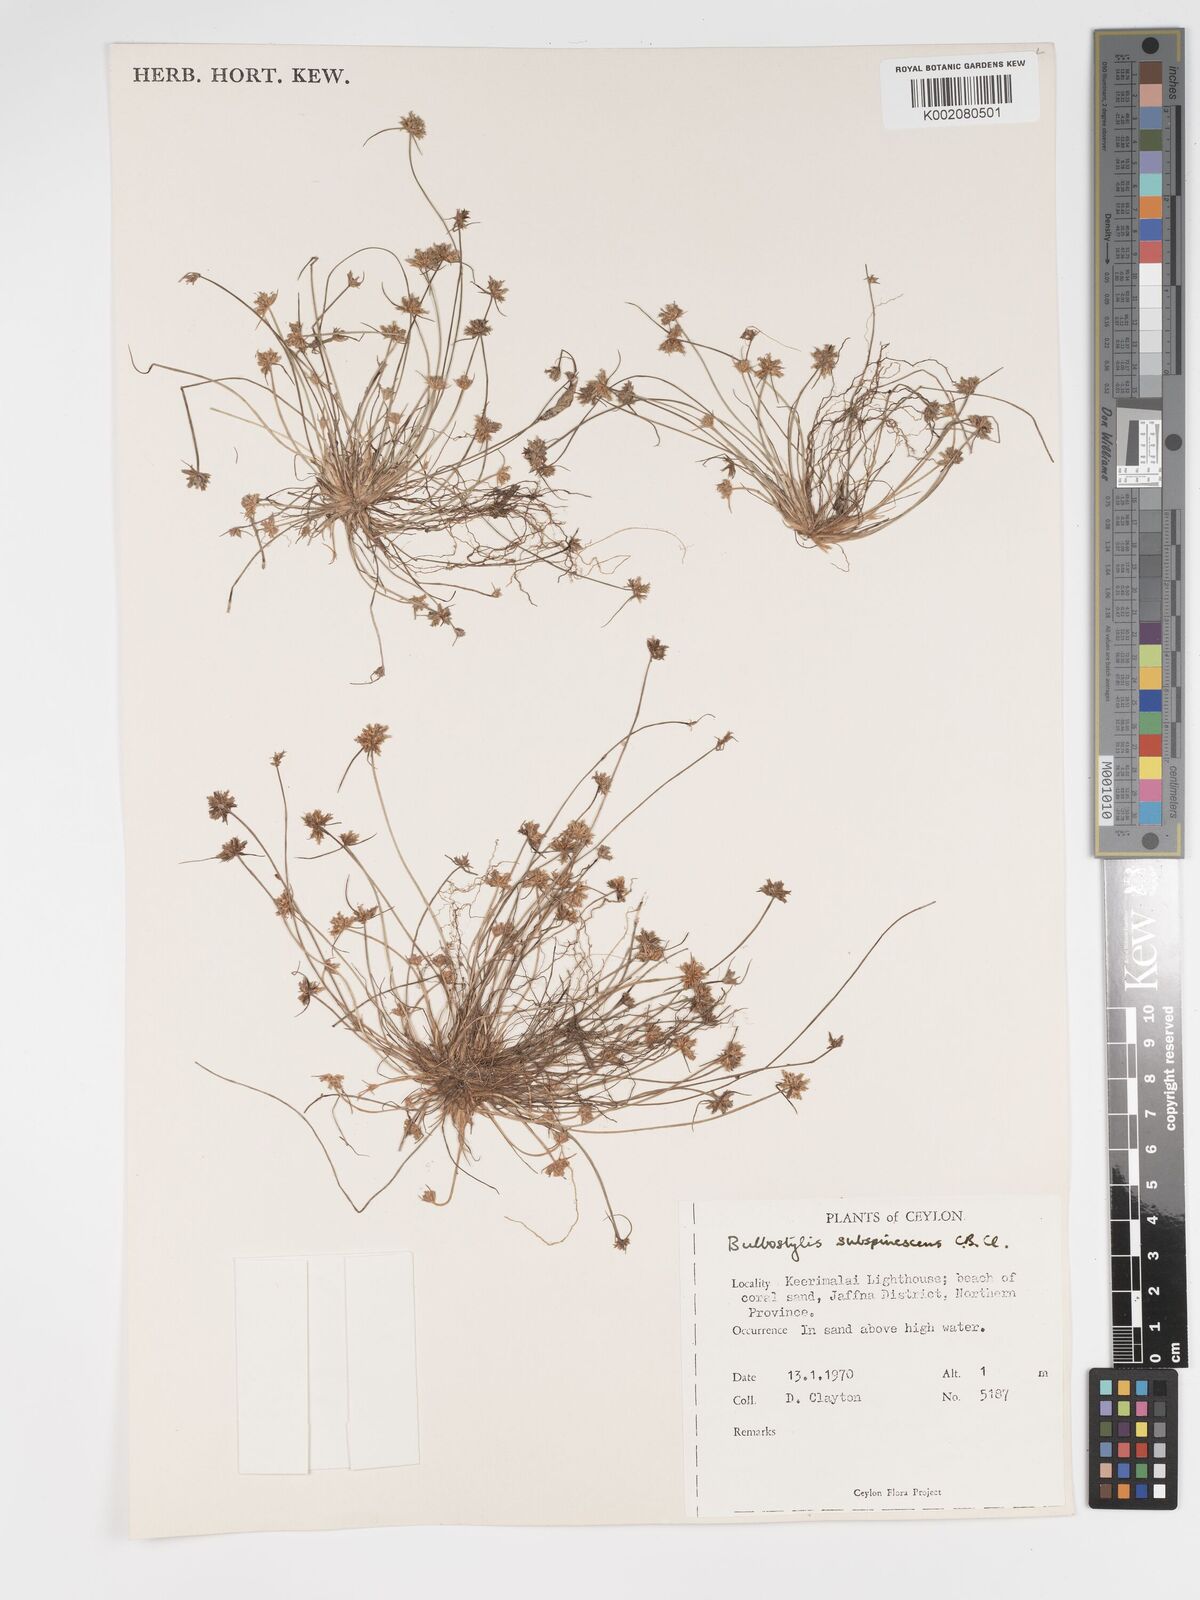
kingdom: Plantae
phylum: Tracheophyta
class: Liliopsida
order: Poales
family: Cyperaceae
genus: Bulbostylis
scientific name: Bulbostylis subspinescens
